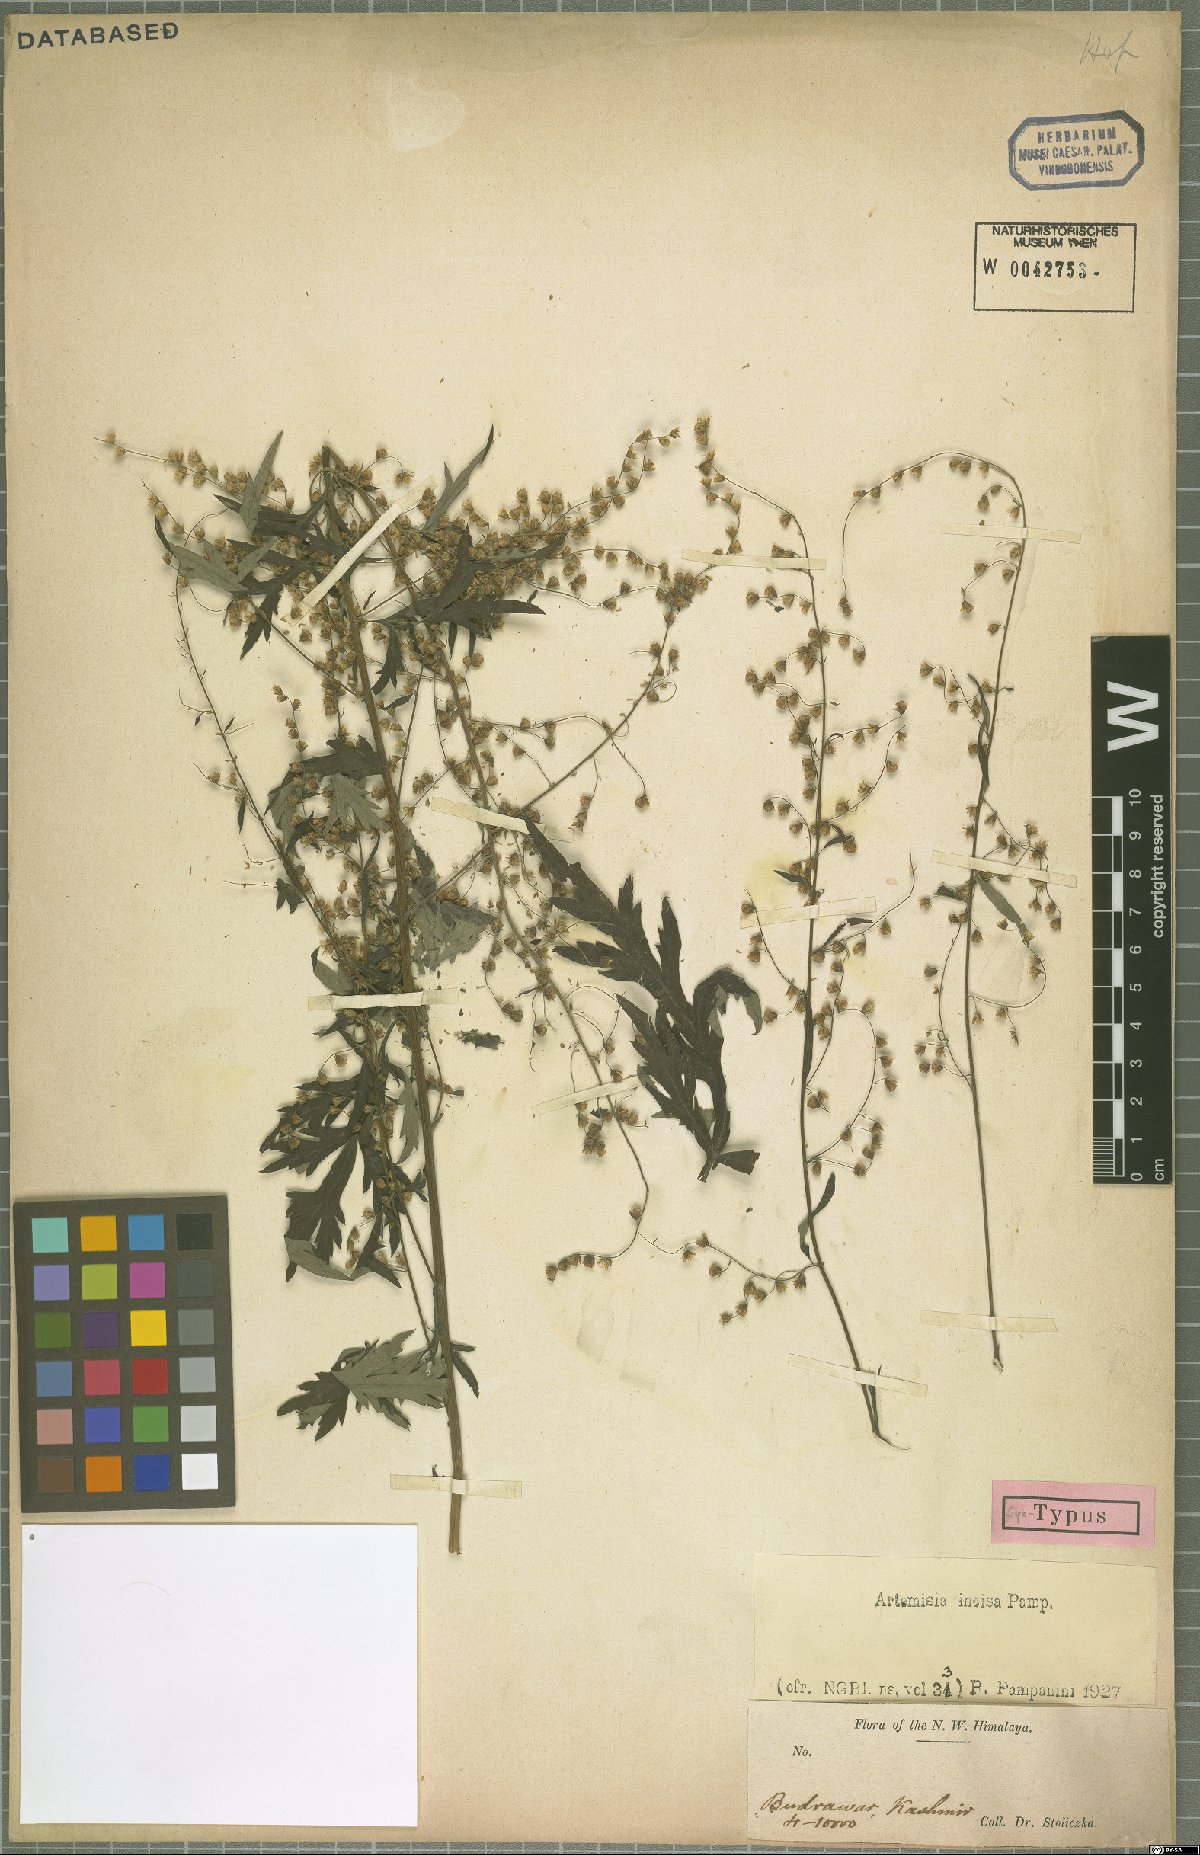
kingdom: Plantae
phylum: Tracheophyta
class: Magnoliopsida
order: Asterales
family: Asteraceae
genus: Artemisia
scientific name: Artemisia incisa
